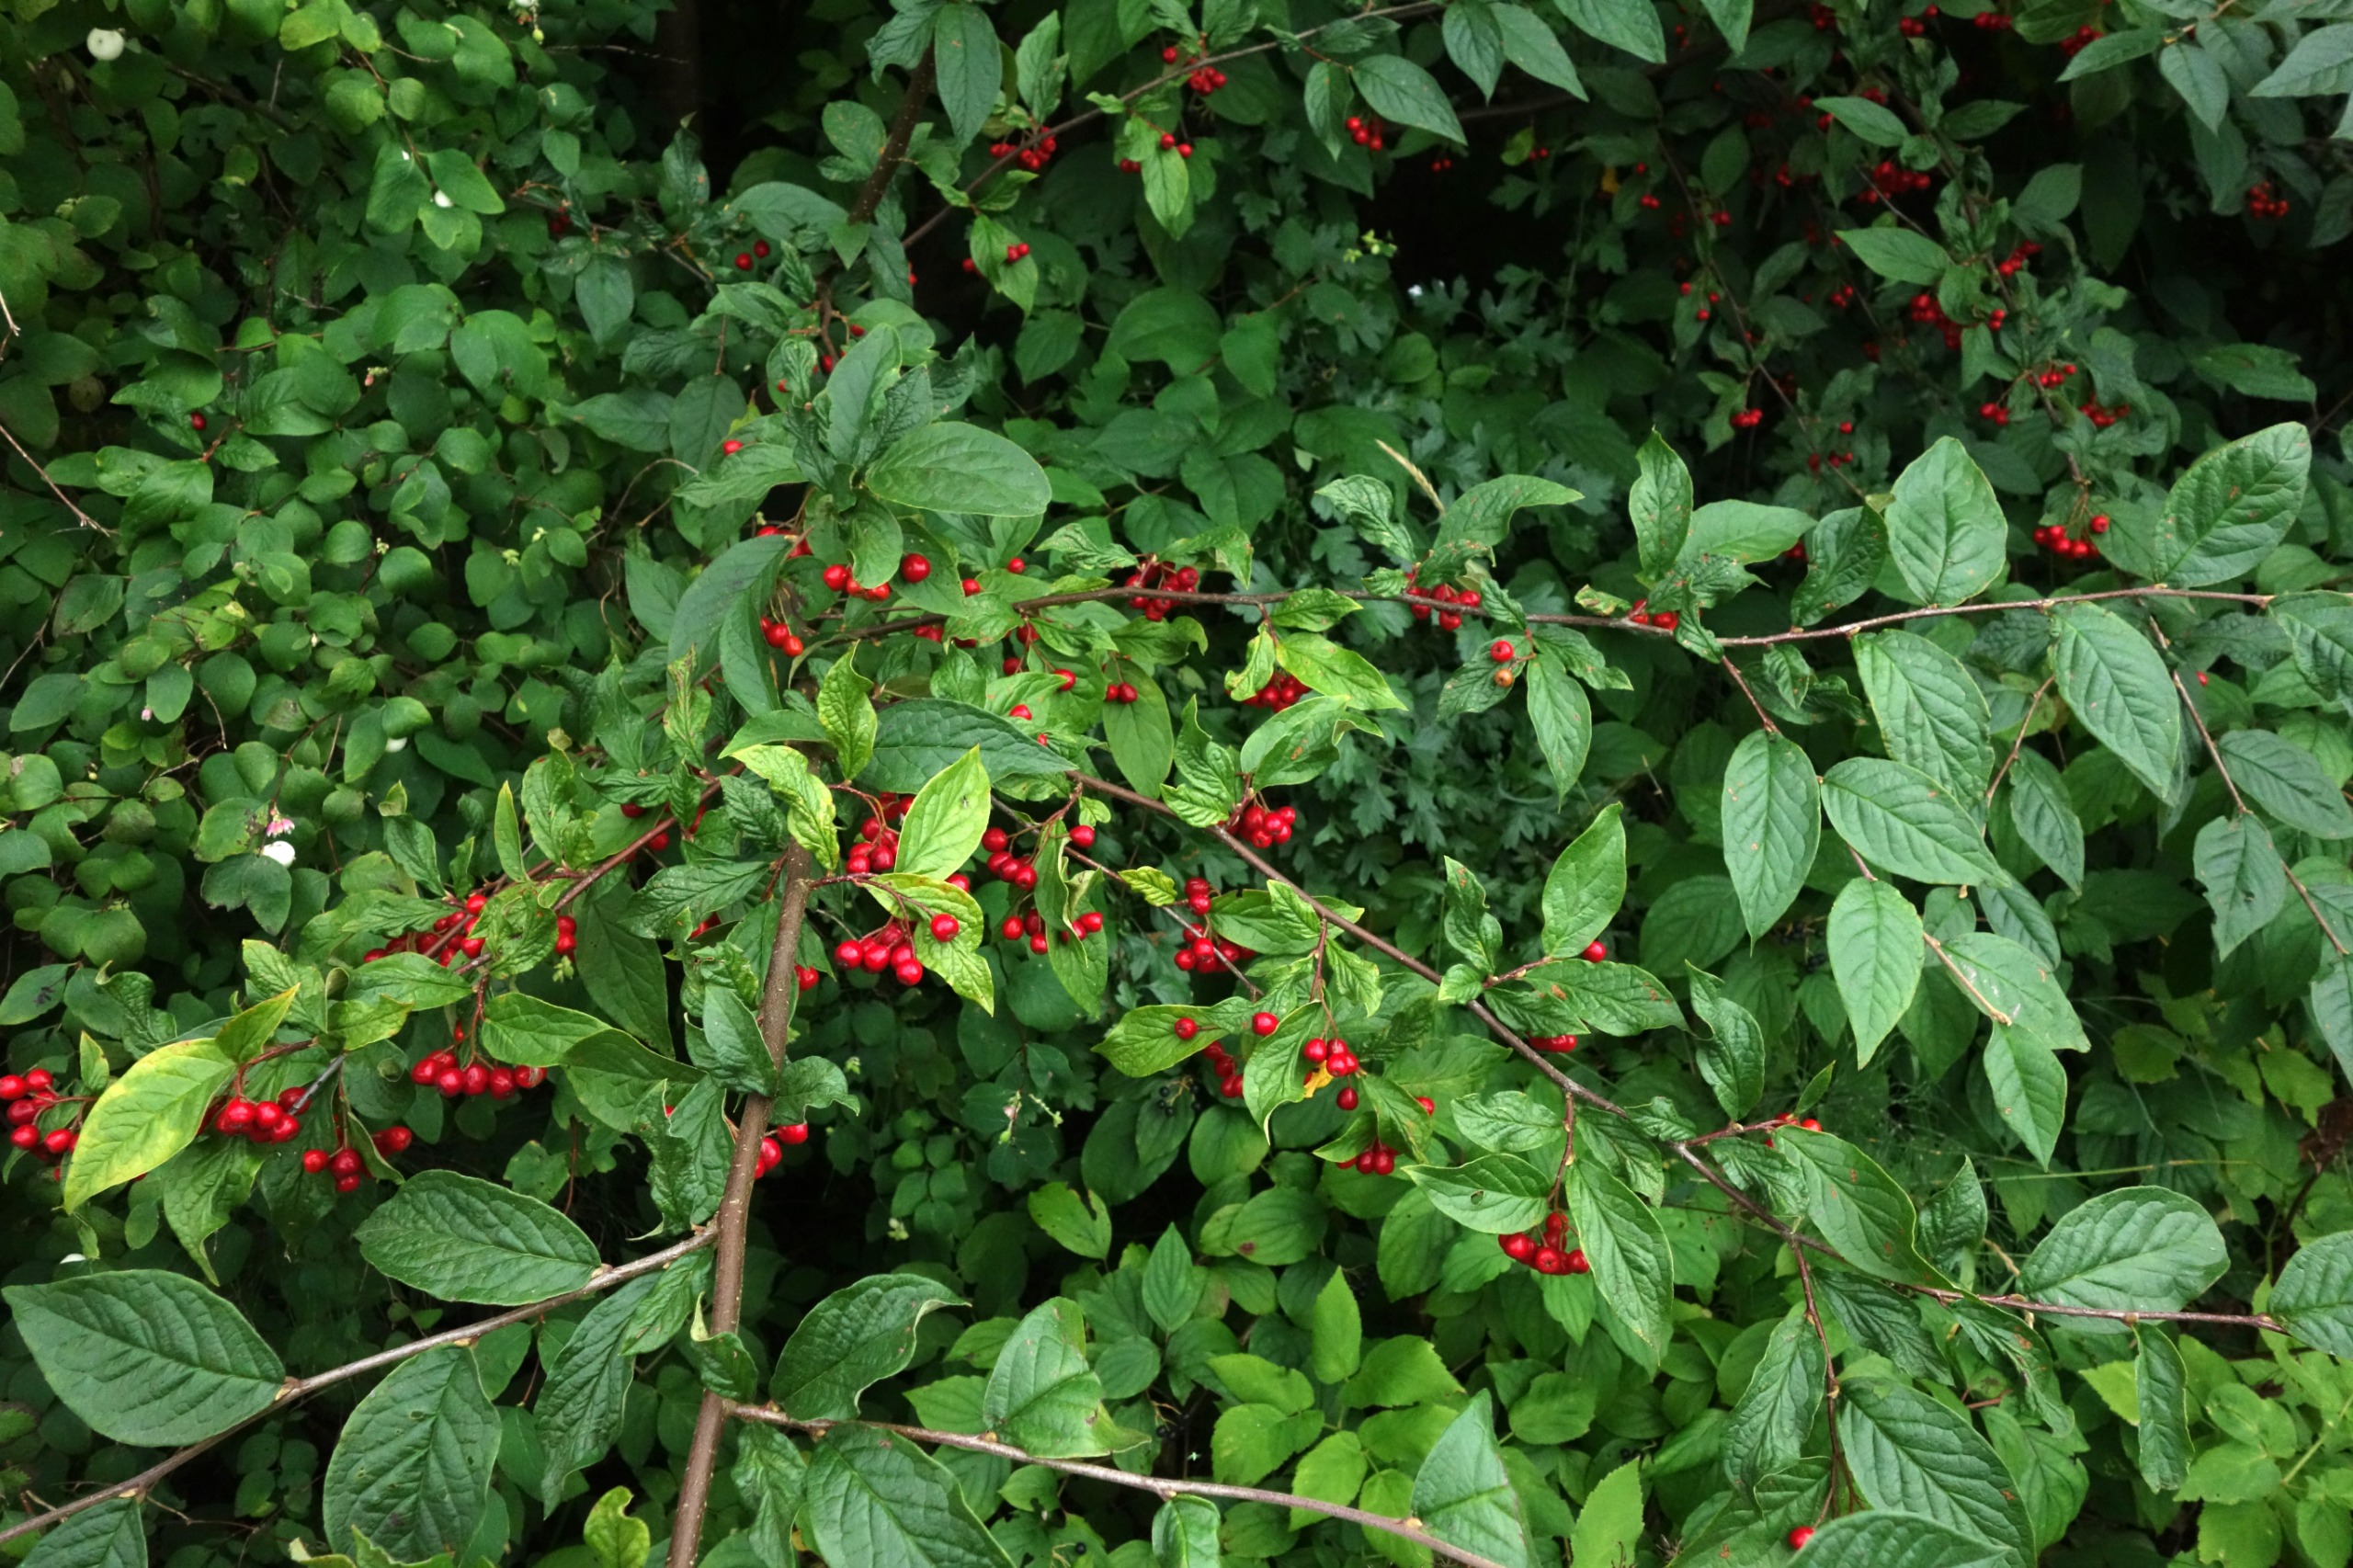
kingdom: Plantae
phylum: Tracheophyta
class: Magnoliopsida
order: Rosales
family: Rosaceae
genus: Cotoneaster
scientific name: Cotoneaster bullatus
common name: Buklet dværgmispel
